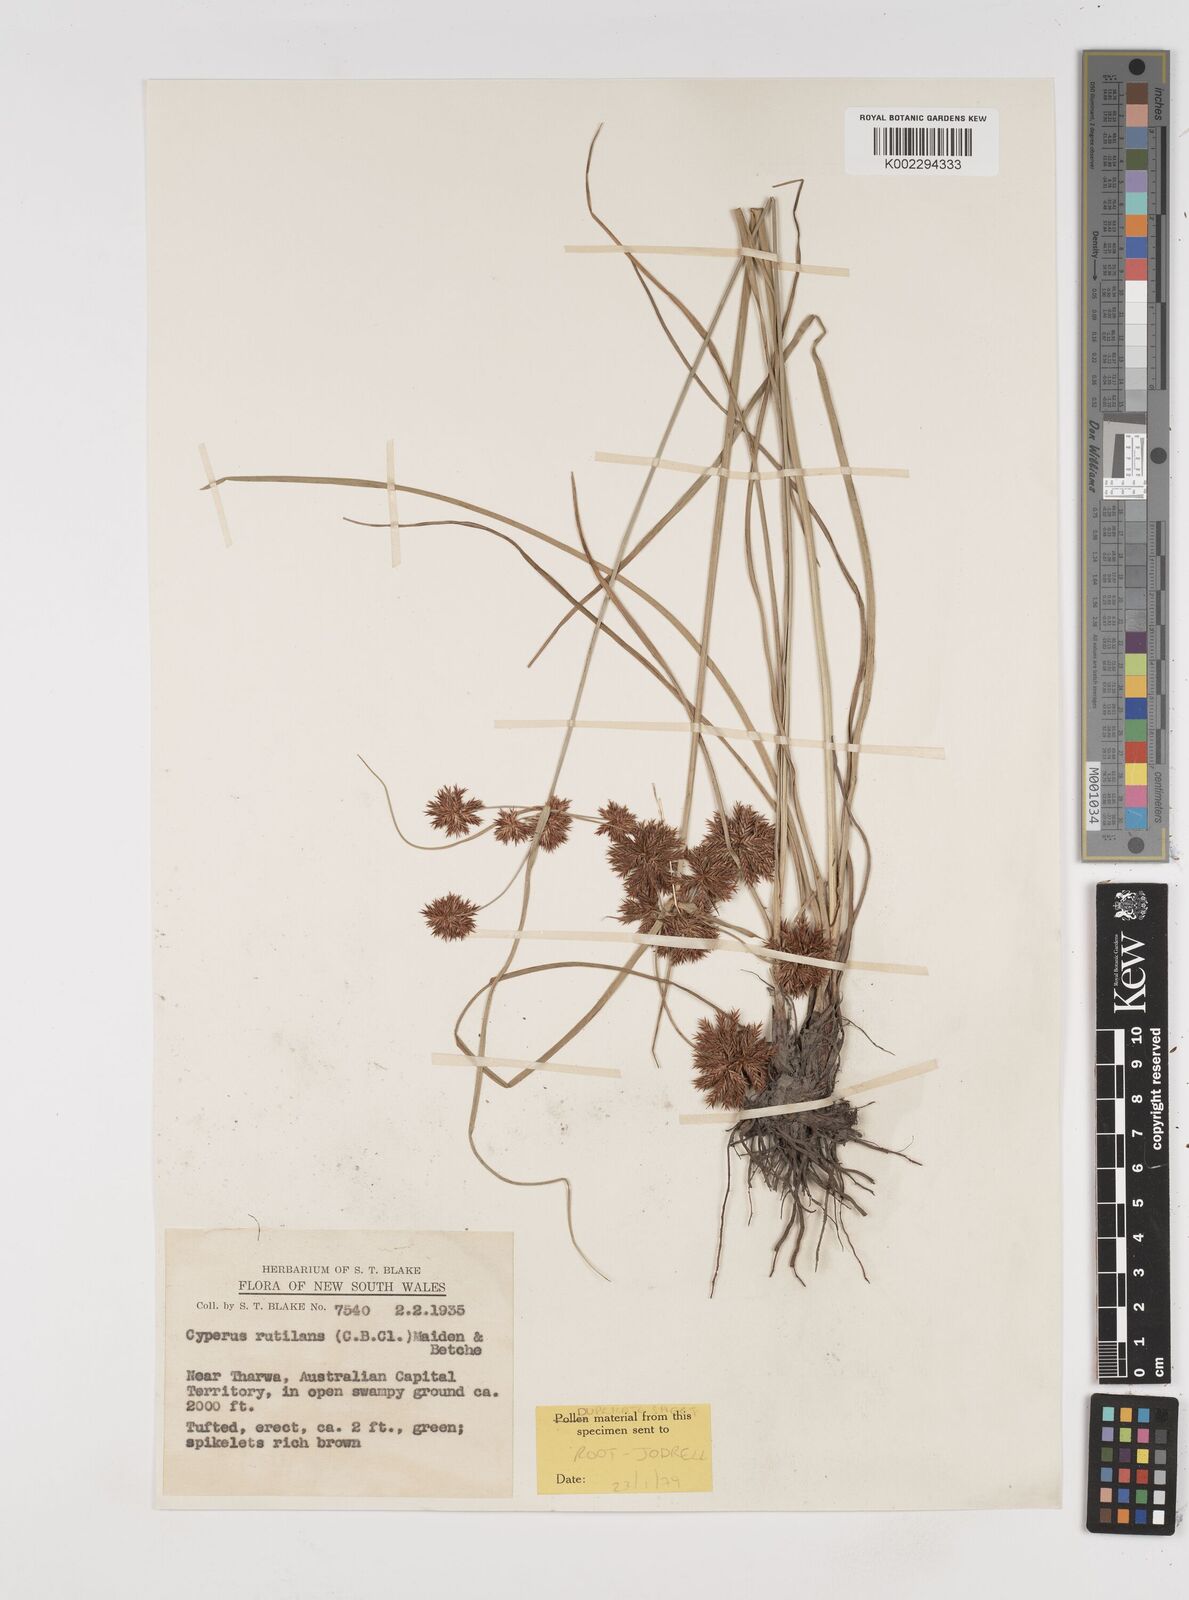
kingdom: Plantae
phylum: Tracheophyta
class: Liliopsida
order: Poales
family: Cyperaceae
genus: Cyperus
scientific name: Cyperus lhotskyanus
